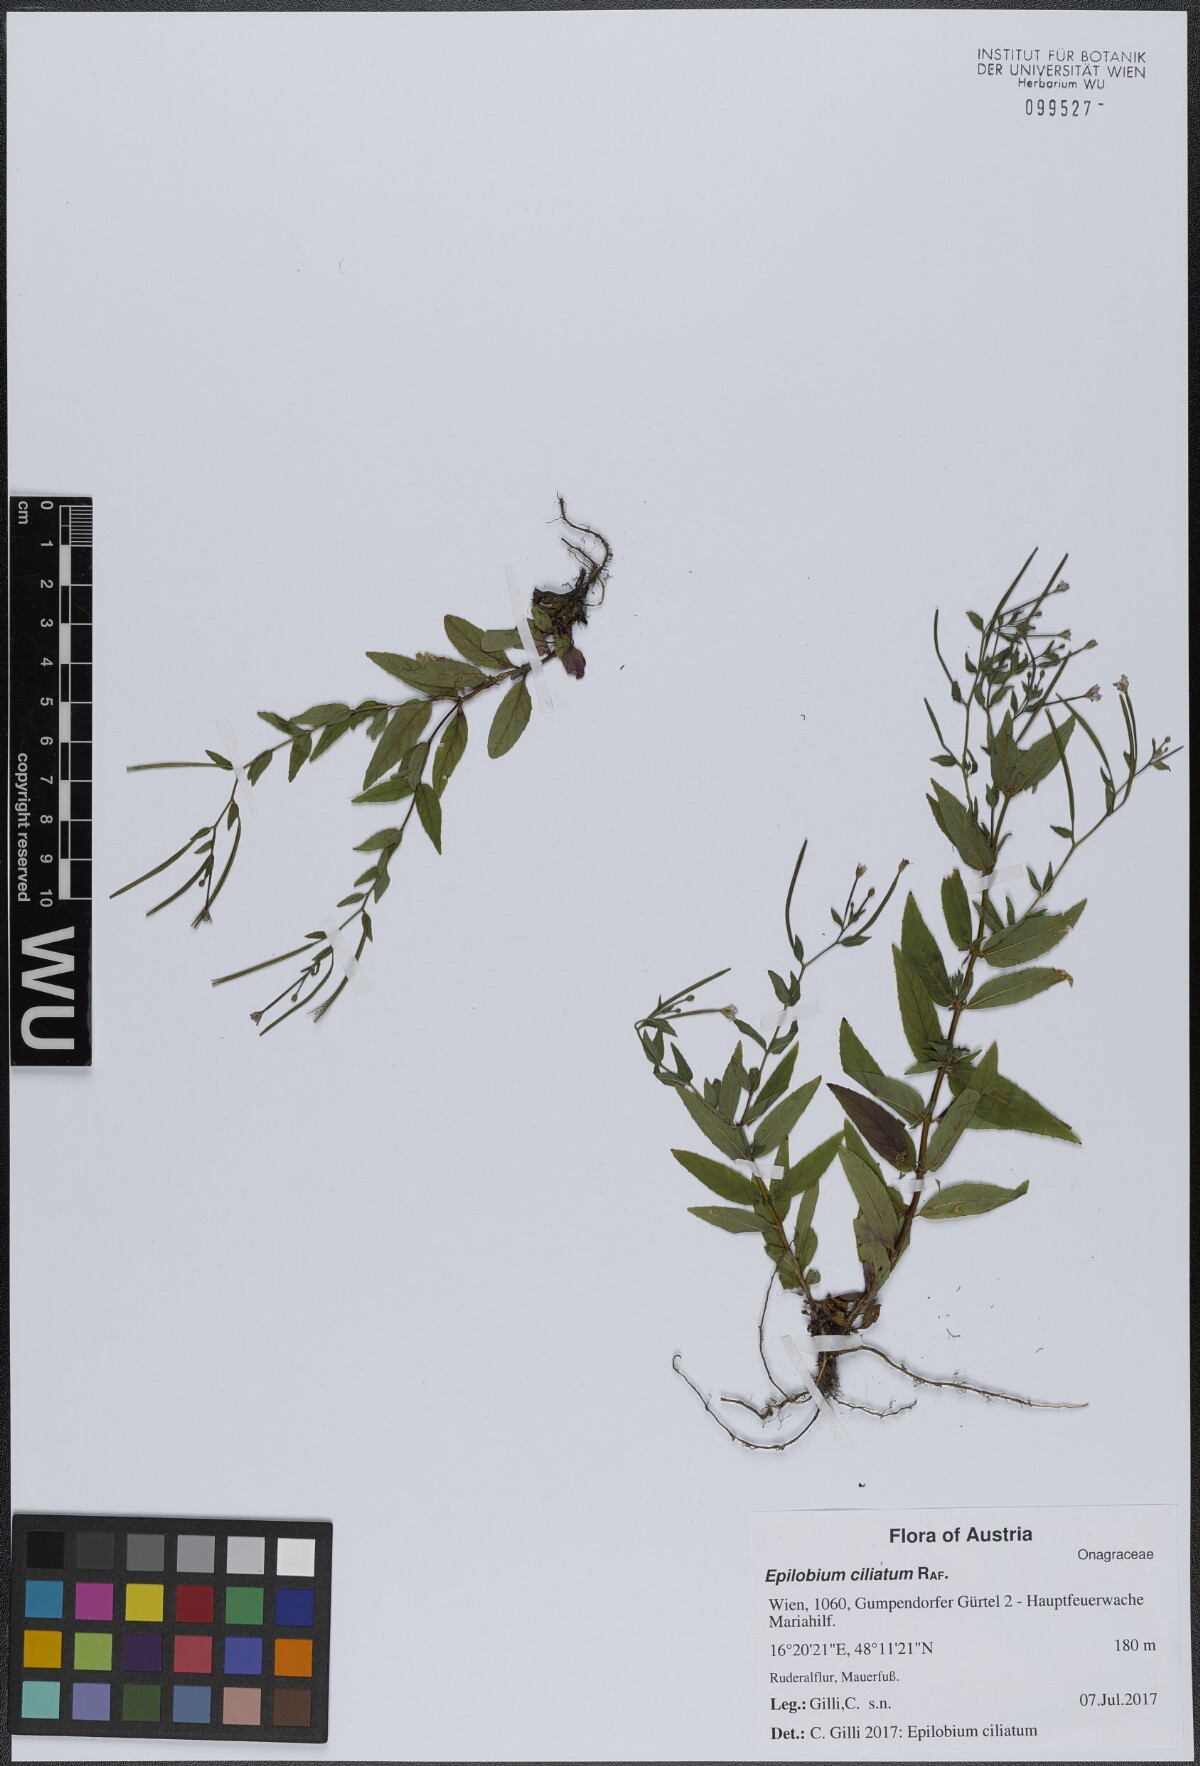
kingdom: Plantae
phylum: Tracheophyta
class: Magnoliopsida
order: Myrtales
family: Onagraceae
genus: Epilobium
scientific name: Epilobium ciliatum
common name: American willowherb
